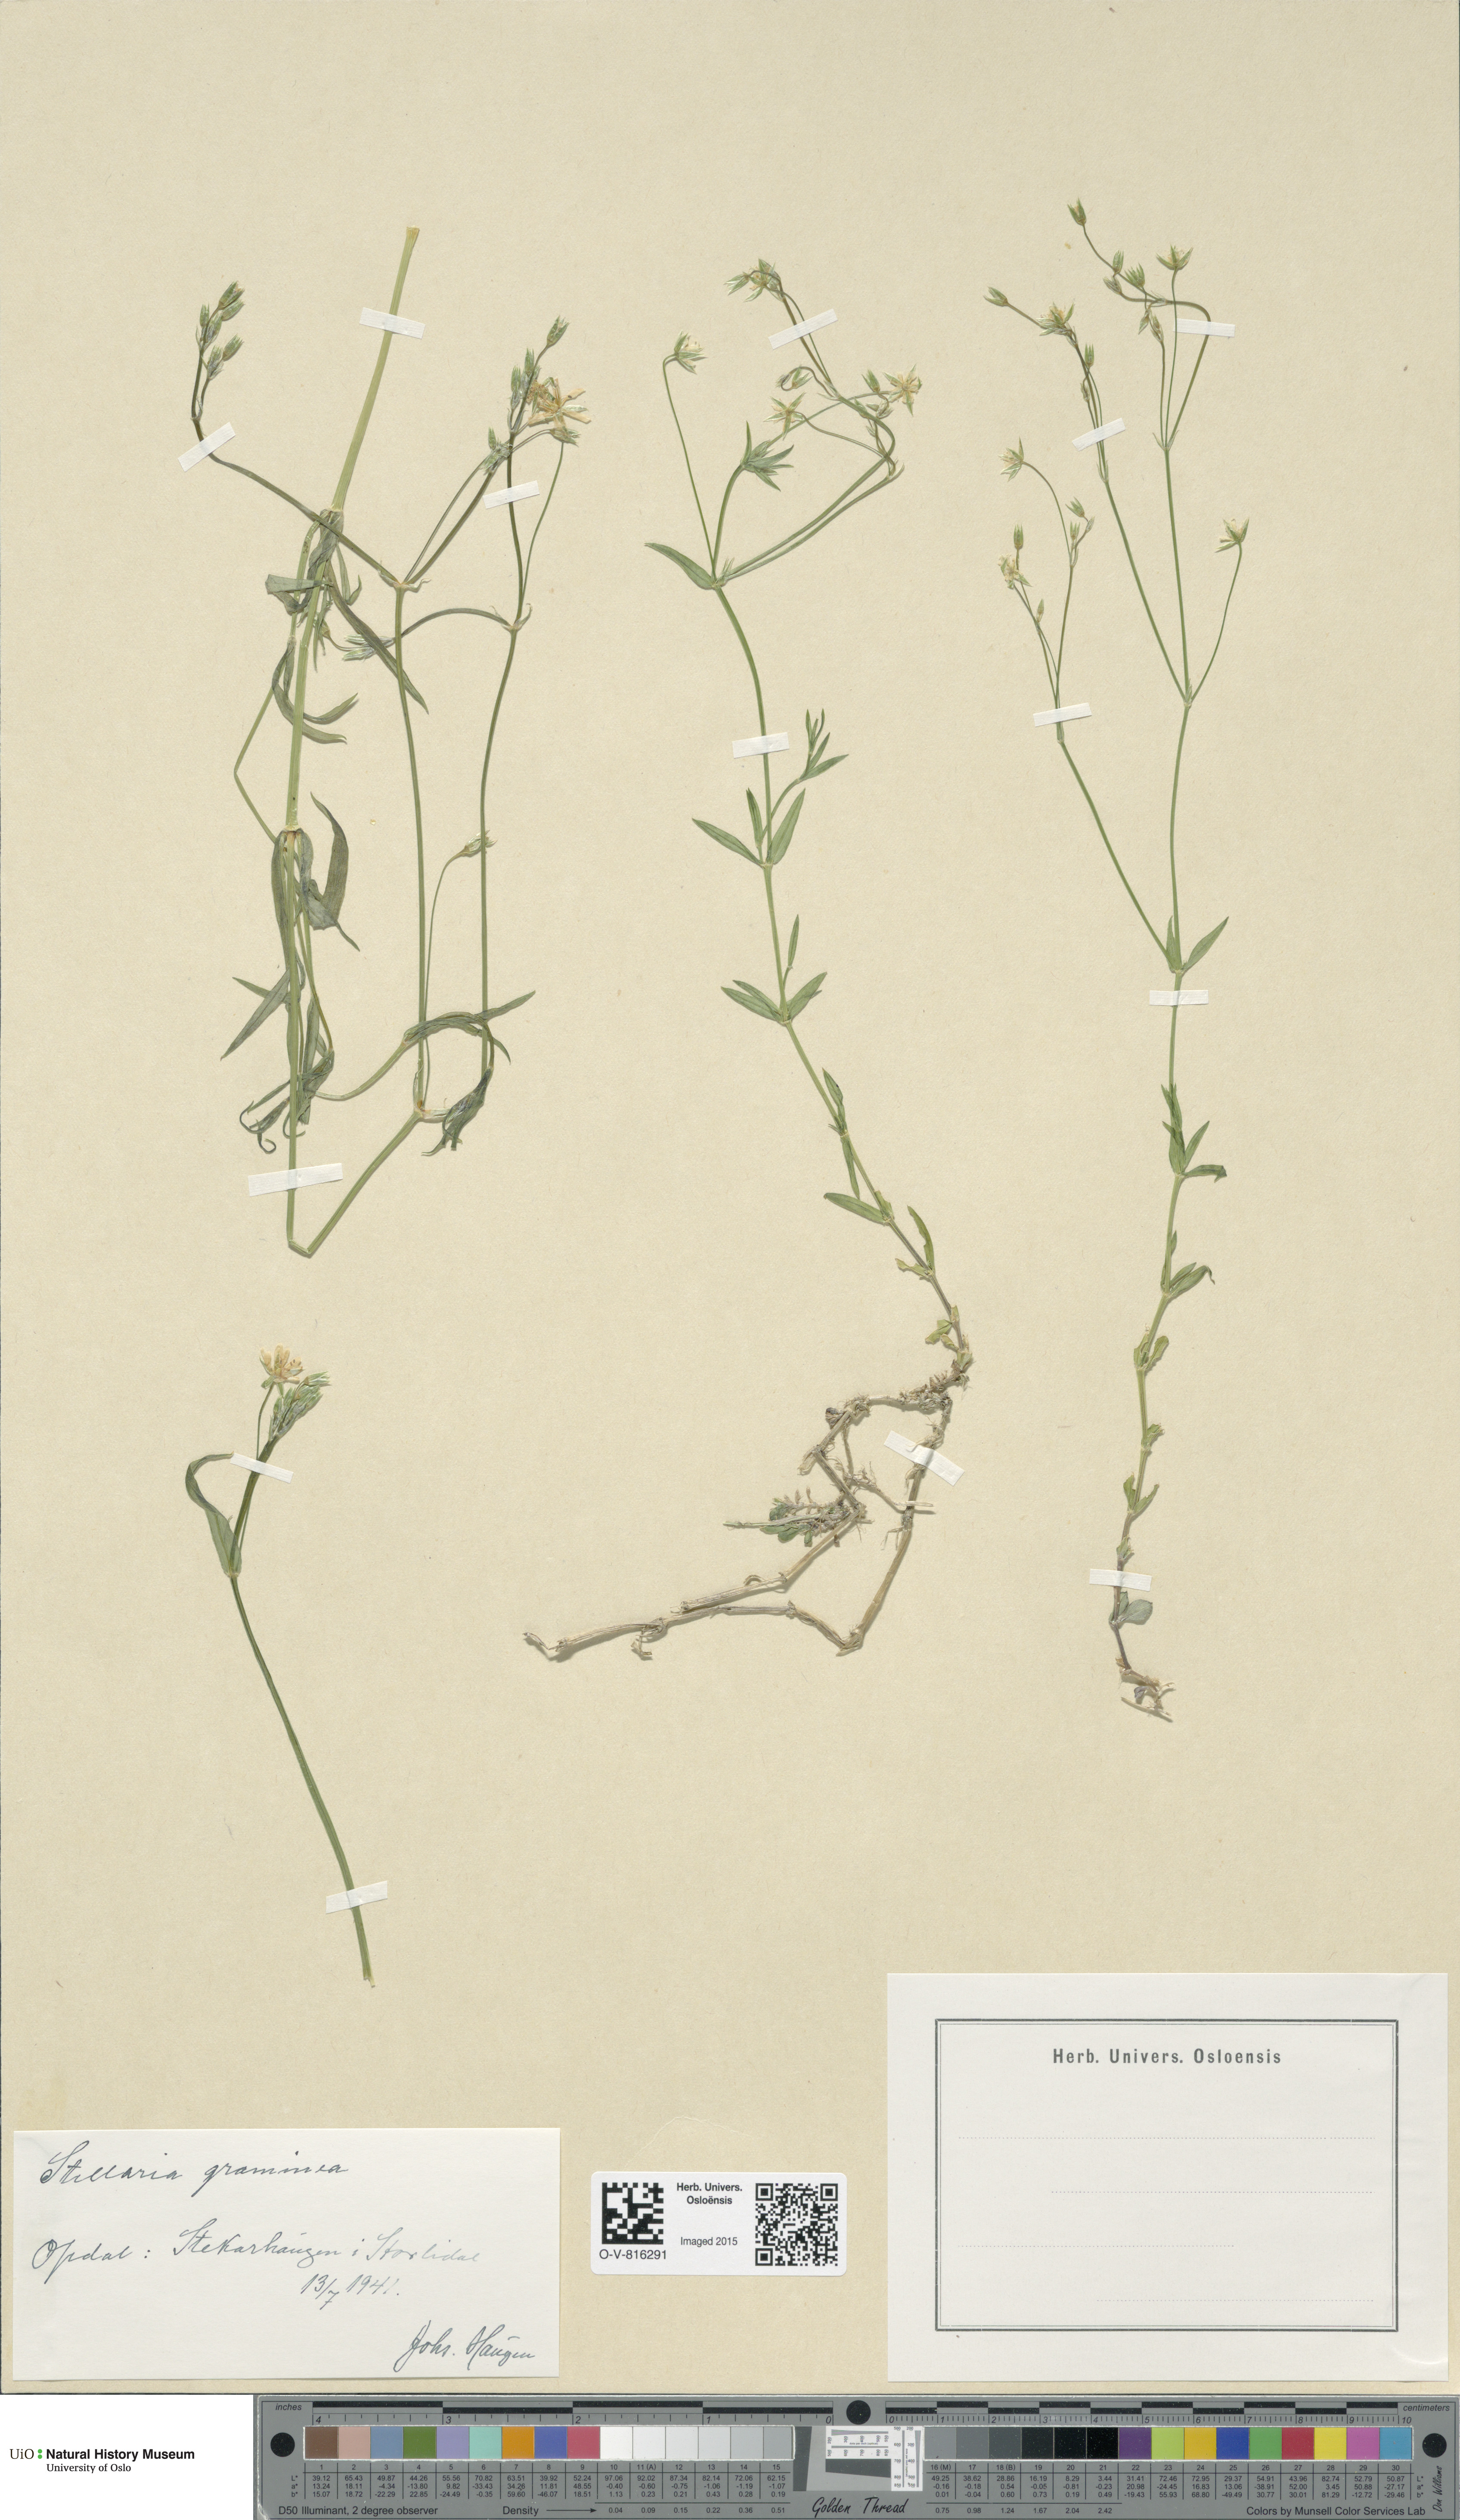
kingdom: Plantae
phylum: Tracheophyta
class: Magnoliopsida
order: Caryophyllales
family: Caryophyllaceae
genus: Stellaria
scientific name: Stellaria graminea
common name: Grass-like starwort
